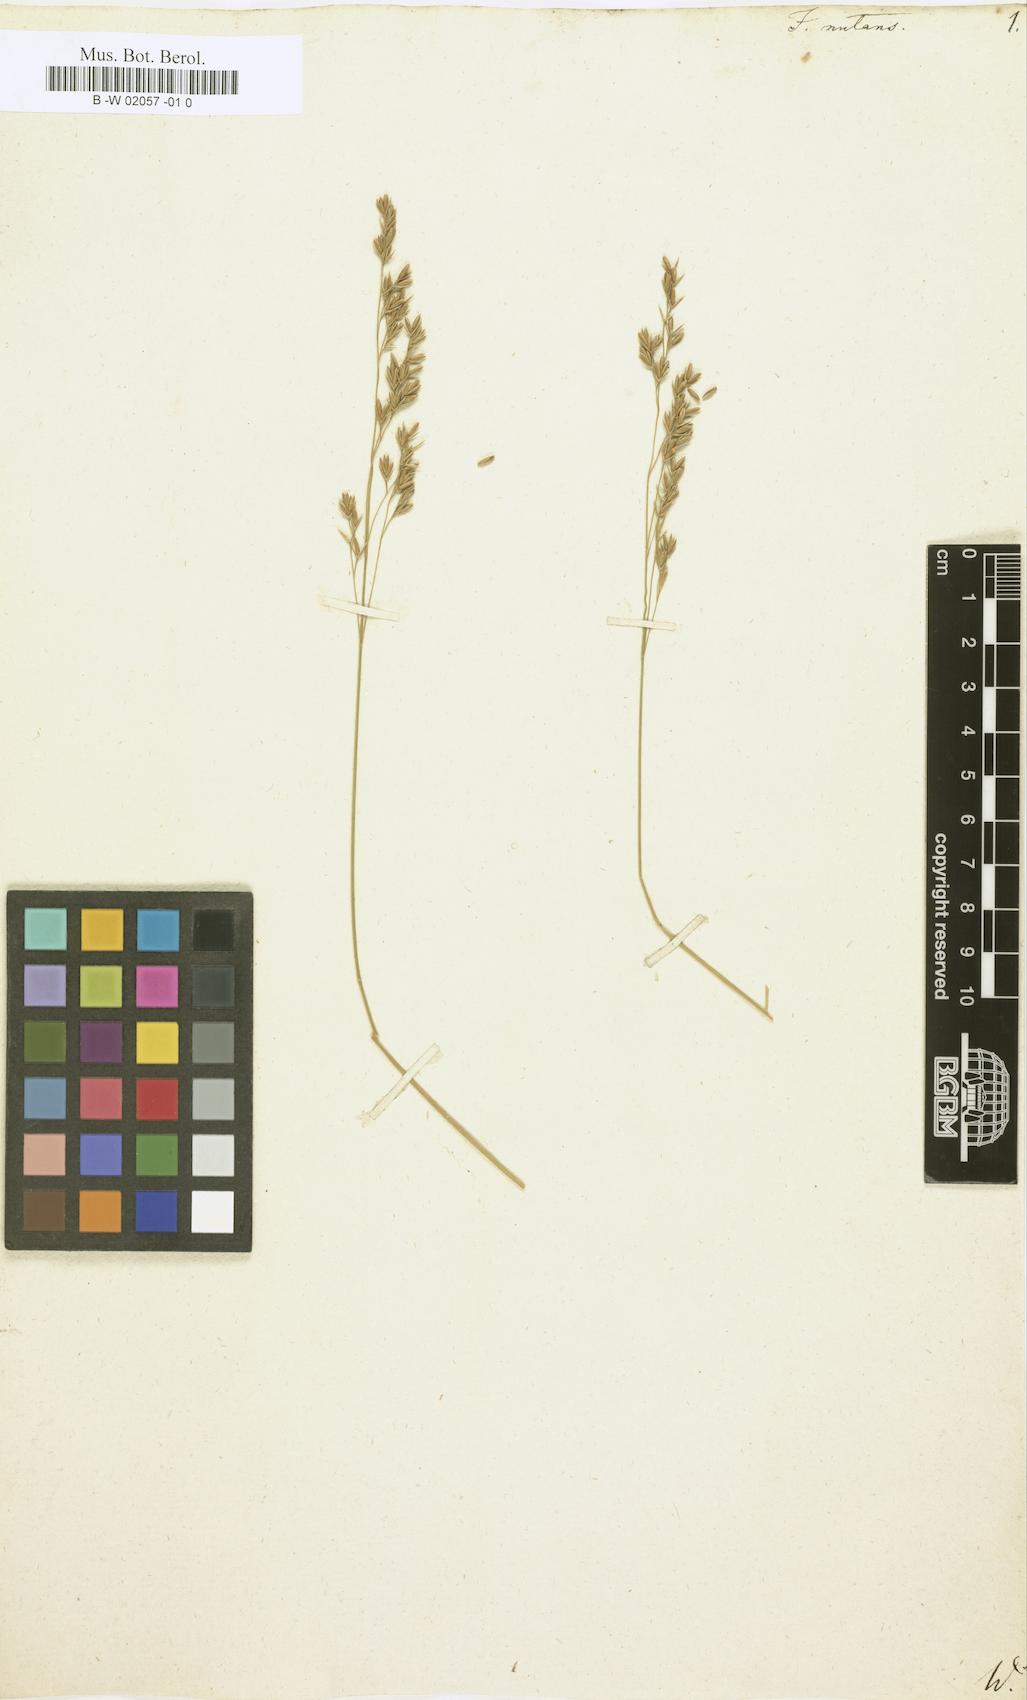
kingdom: Plantae
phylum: Tracheophyta
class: Liliopsida
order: Poales
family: Poaceae
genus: Festuca
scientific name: Festuca nutans
